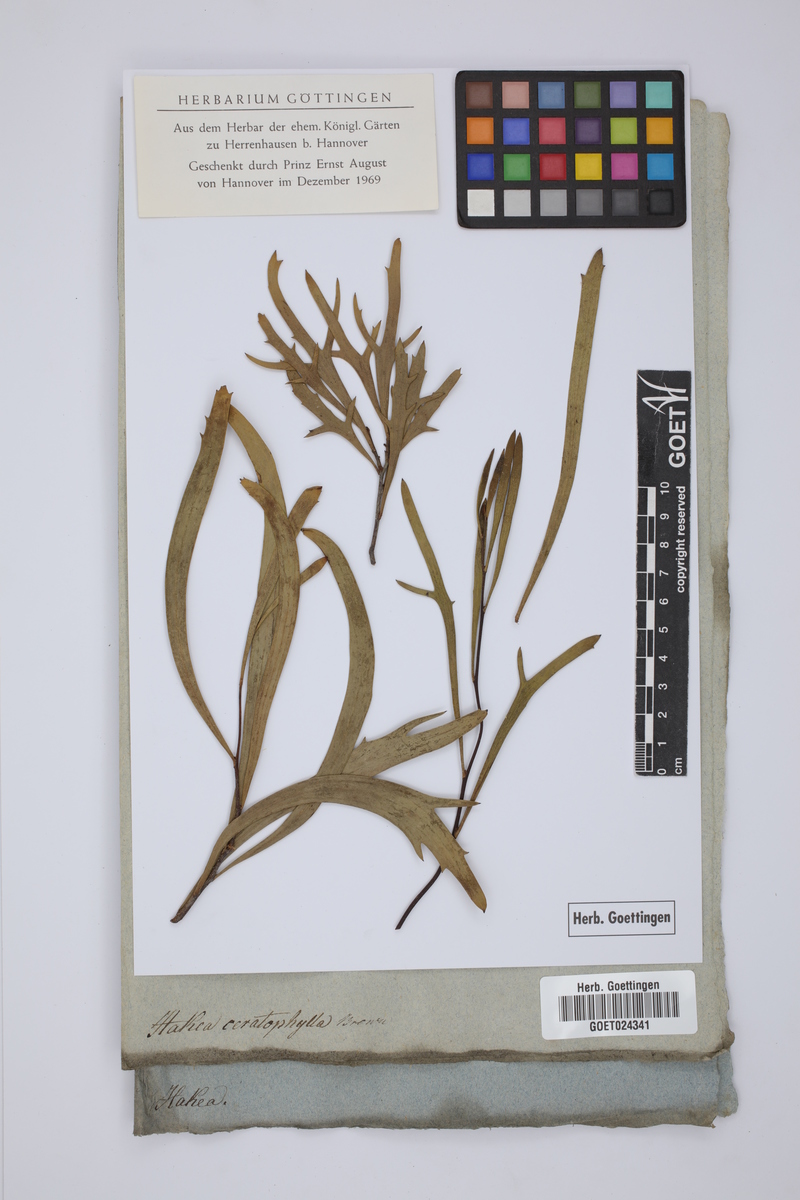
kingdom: Plantae
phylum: Tracheophyta
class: Magnoliopsida
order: Proteales
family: Proteaceae
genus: Hakea
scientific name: Hakea ceratophylla
